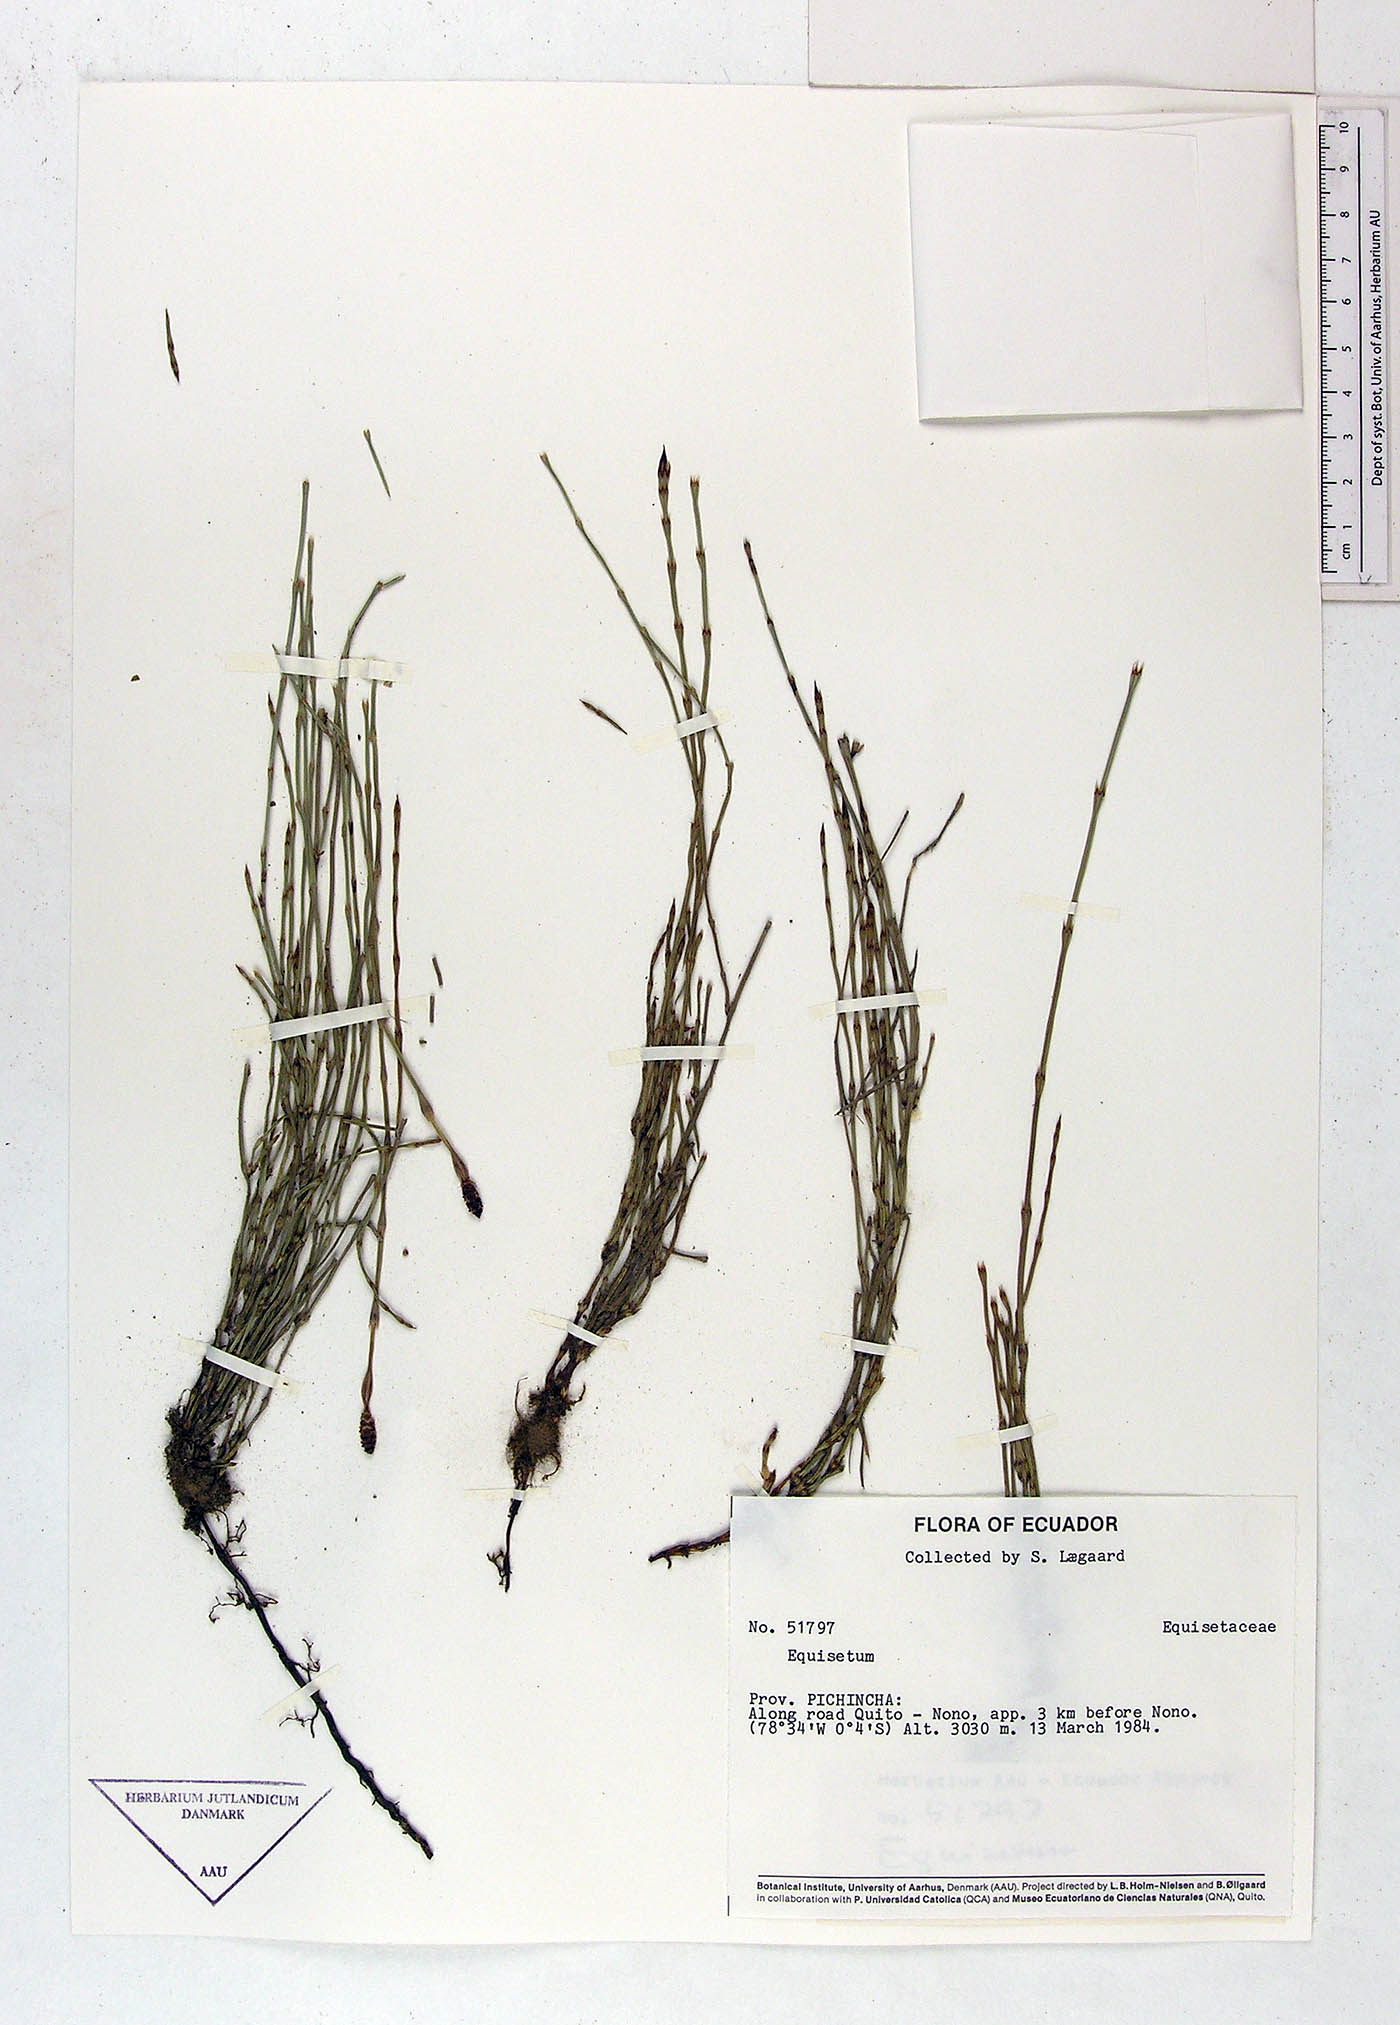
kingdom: Plantae
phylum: Tracheophyta
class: Polypodiopsida
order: Equisetales
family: Equisetaceae
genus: Equisetum
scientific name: Equisetum
